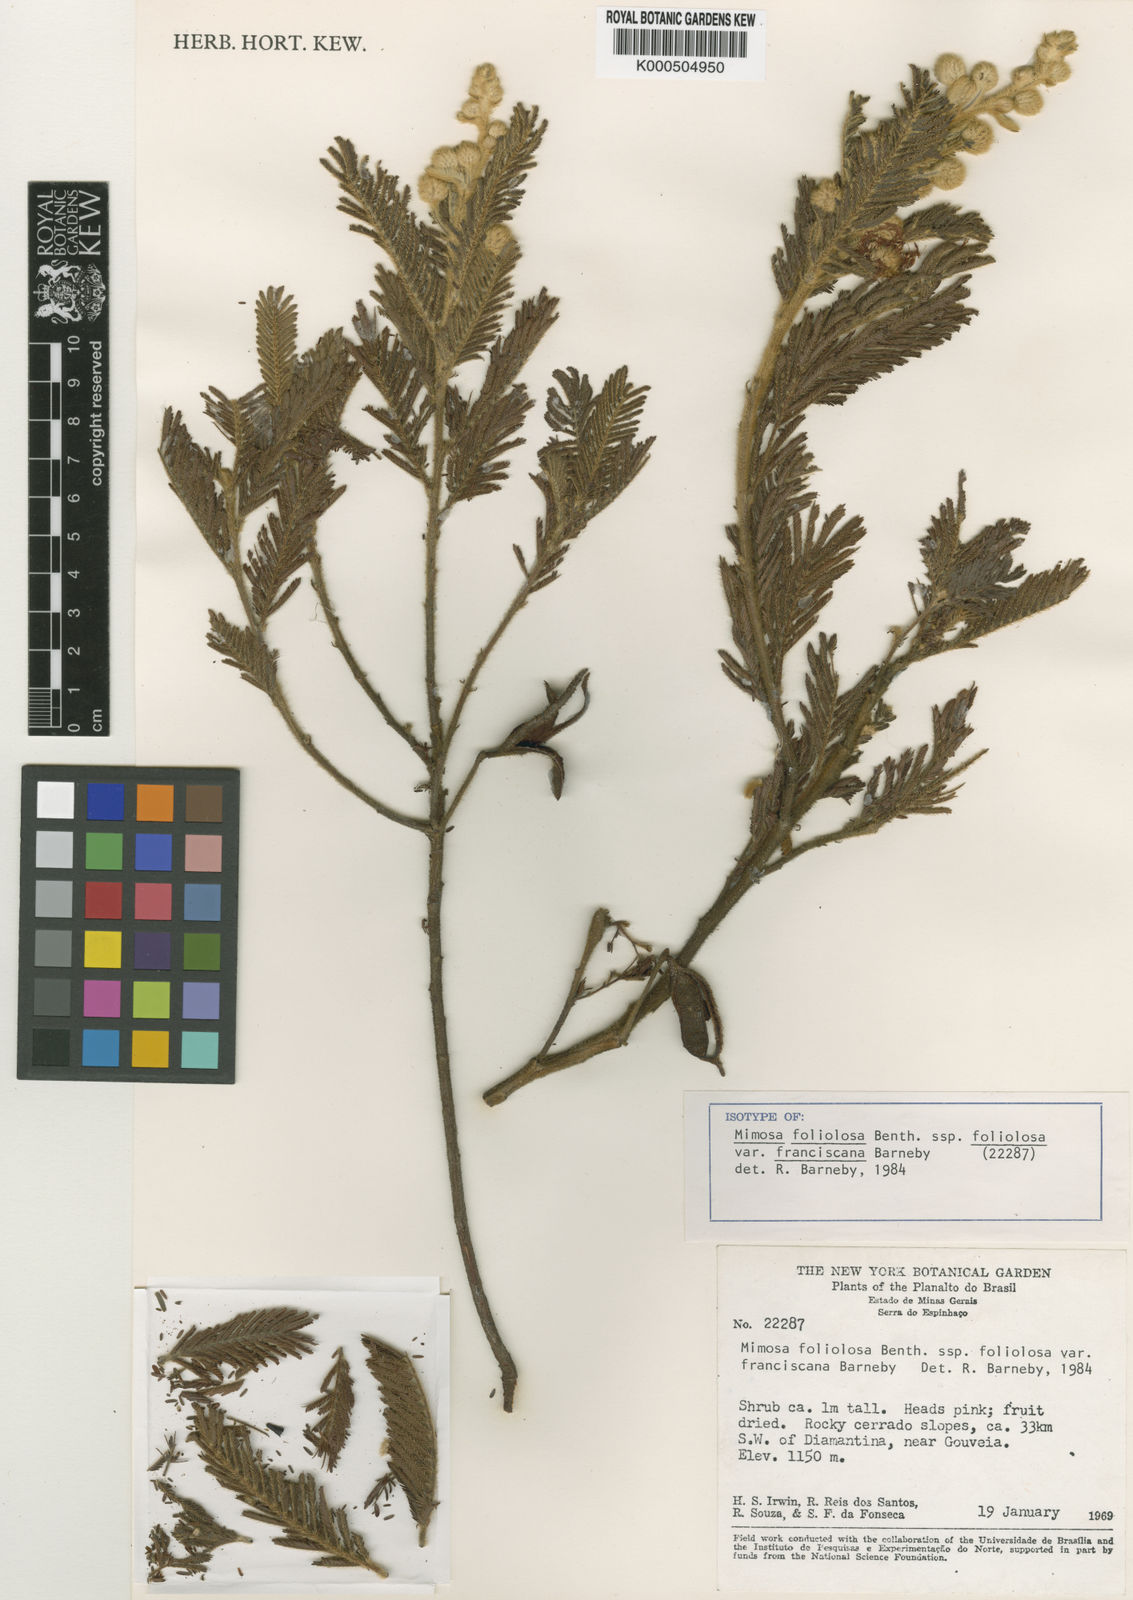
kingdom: Plantae
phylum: Tracheophyta
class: Magnoliopsida
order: Fabales
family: Fabaceae
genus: Mimosa
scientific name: Mimosa
